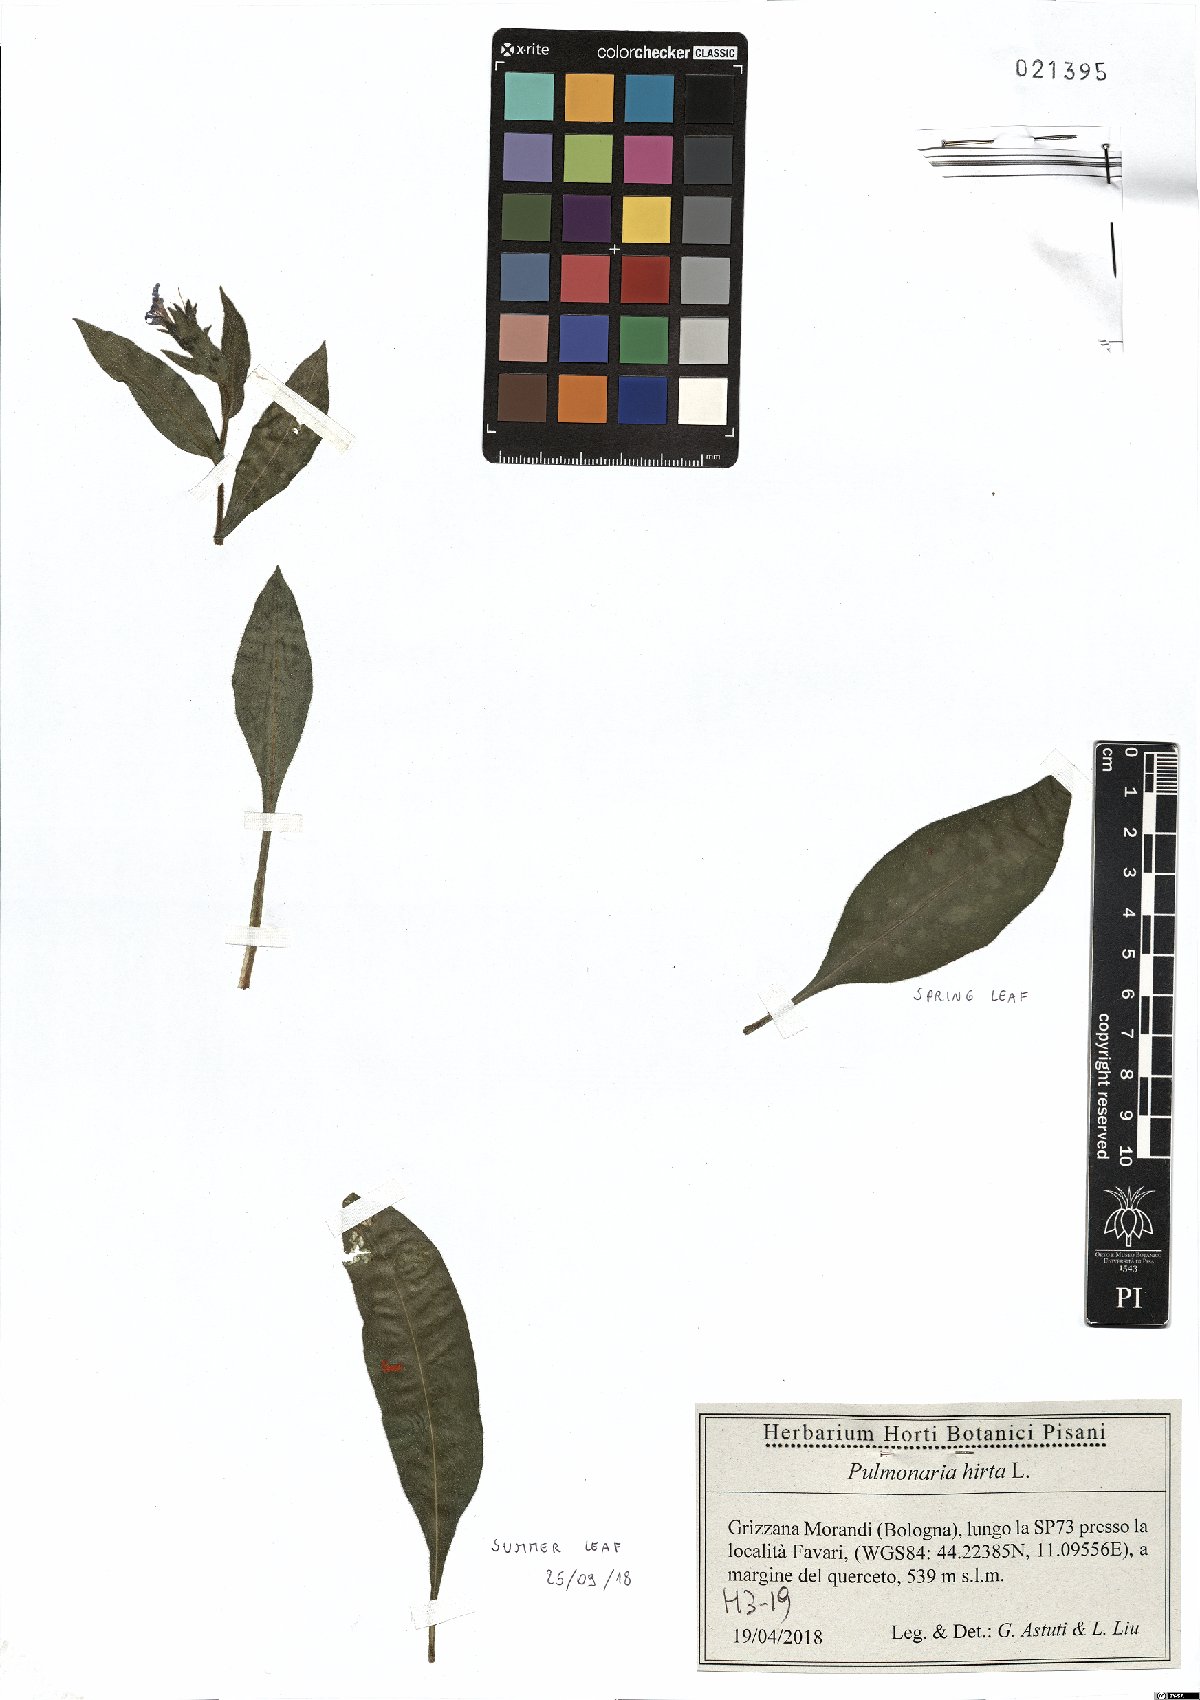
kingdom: Plantae
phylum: Tracheophyta
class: Magnoliopsida
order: Boraginales
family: Boraginaceae
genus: Pulmonaria
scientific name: Pulmonaria hirta
